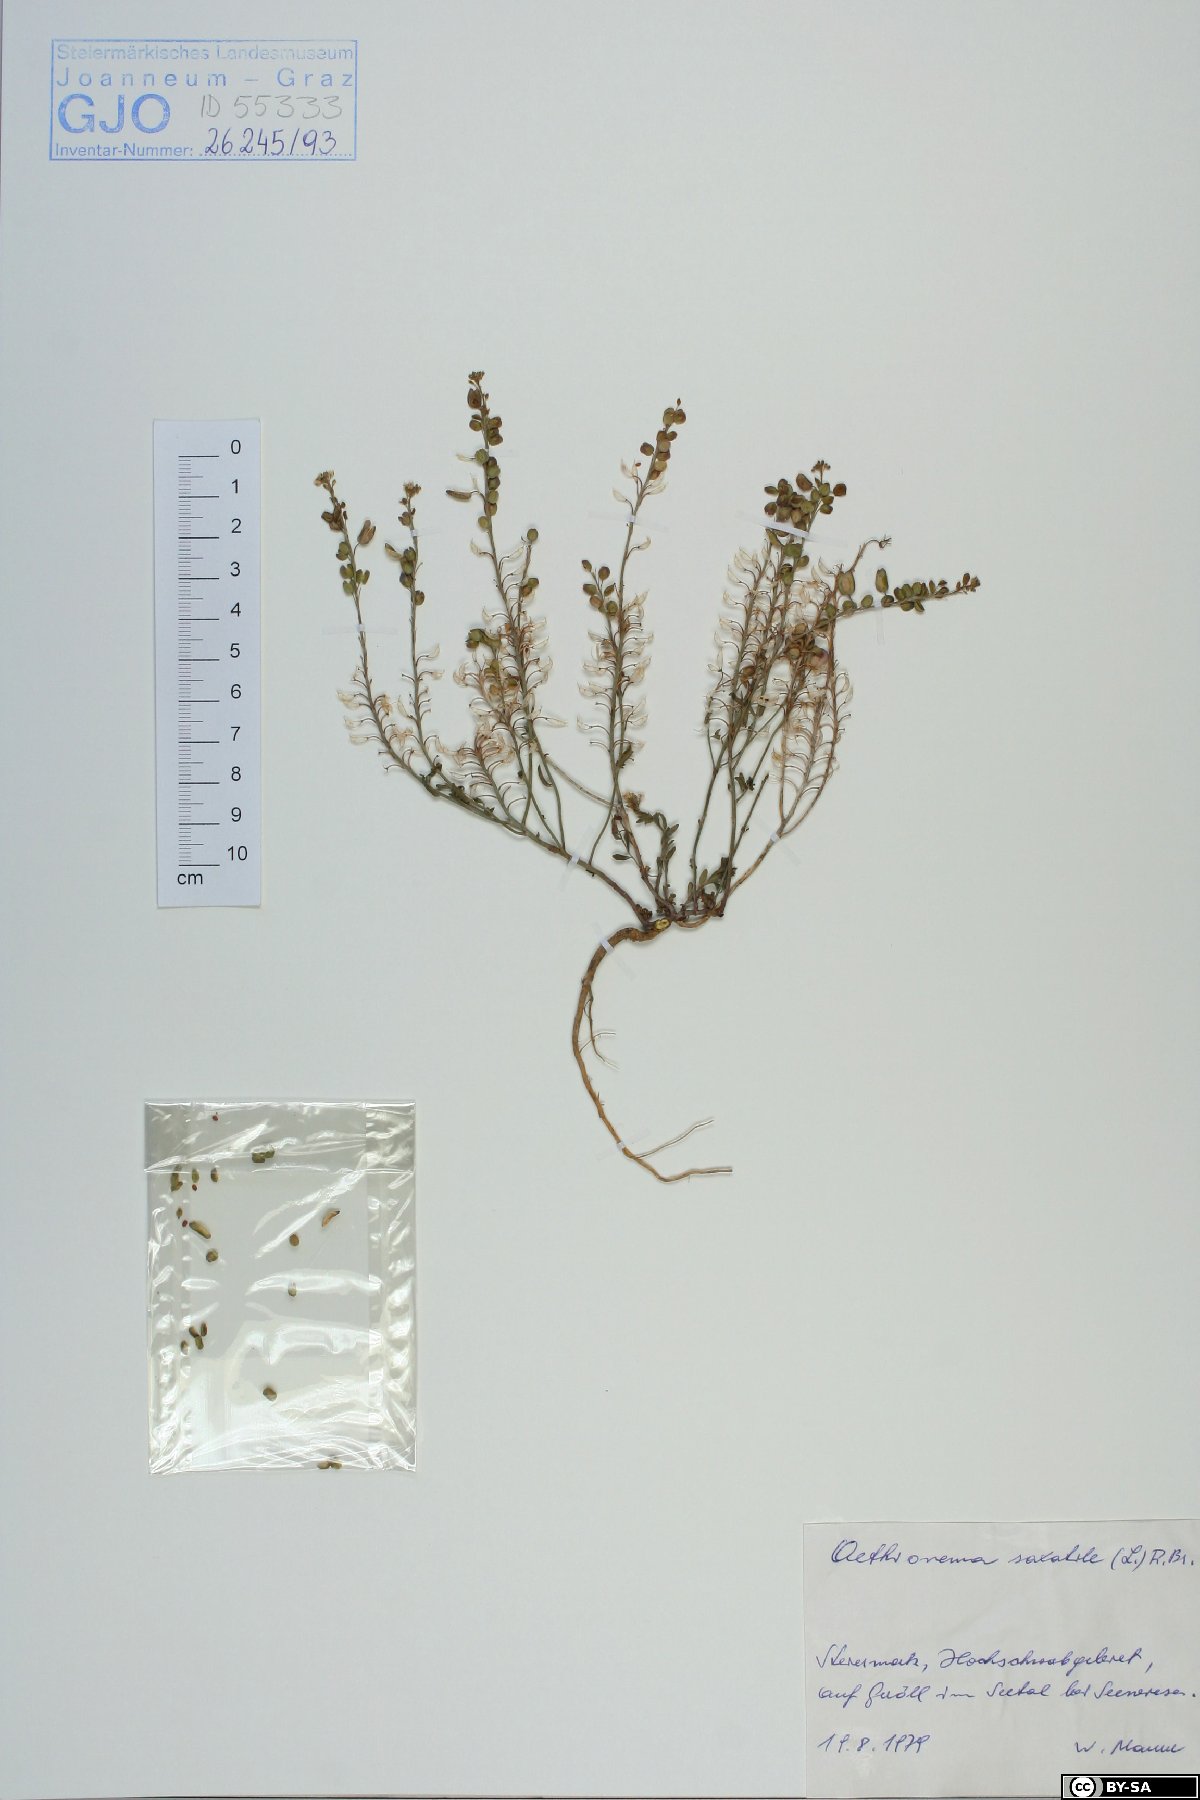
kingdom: Plantae
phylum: Tracheophyta
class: Magnoliopsida
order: Brassicales
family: Brassicaceae
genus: Aethionema
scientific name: Aethionema saxatile
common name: Burnt candytuft
